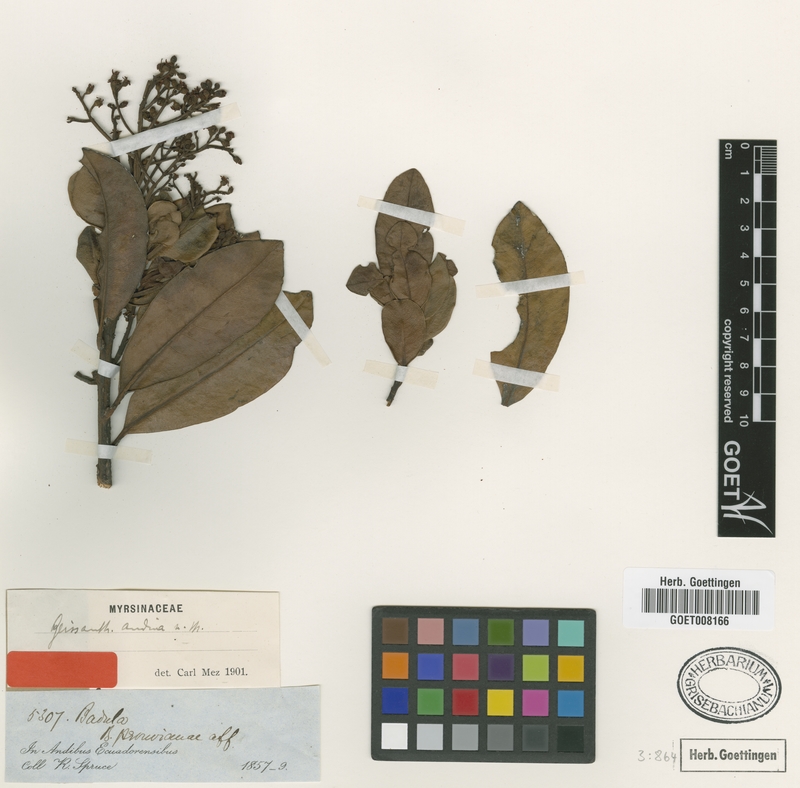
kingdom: Plantae
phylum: Tracheophyta
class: Magnoliopsida
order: Ericales
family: Primulaceae
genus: Geissanthus
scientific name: Geissanthus andinus
